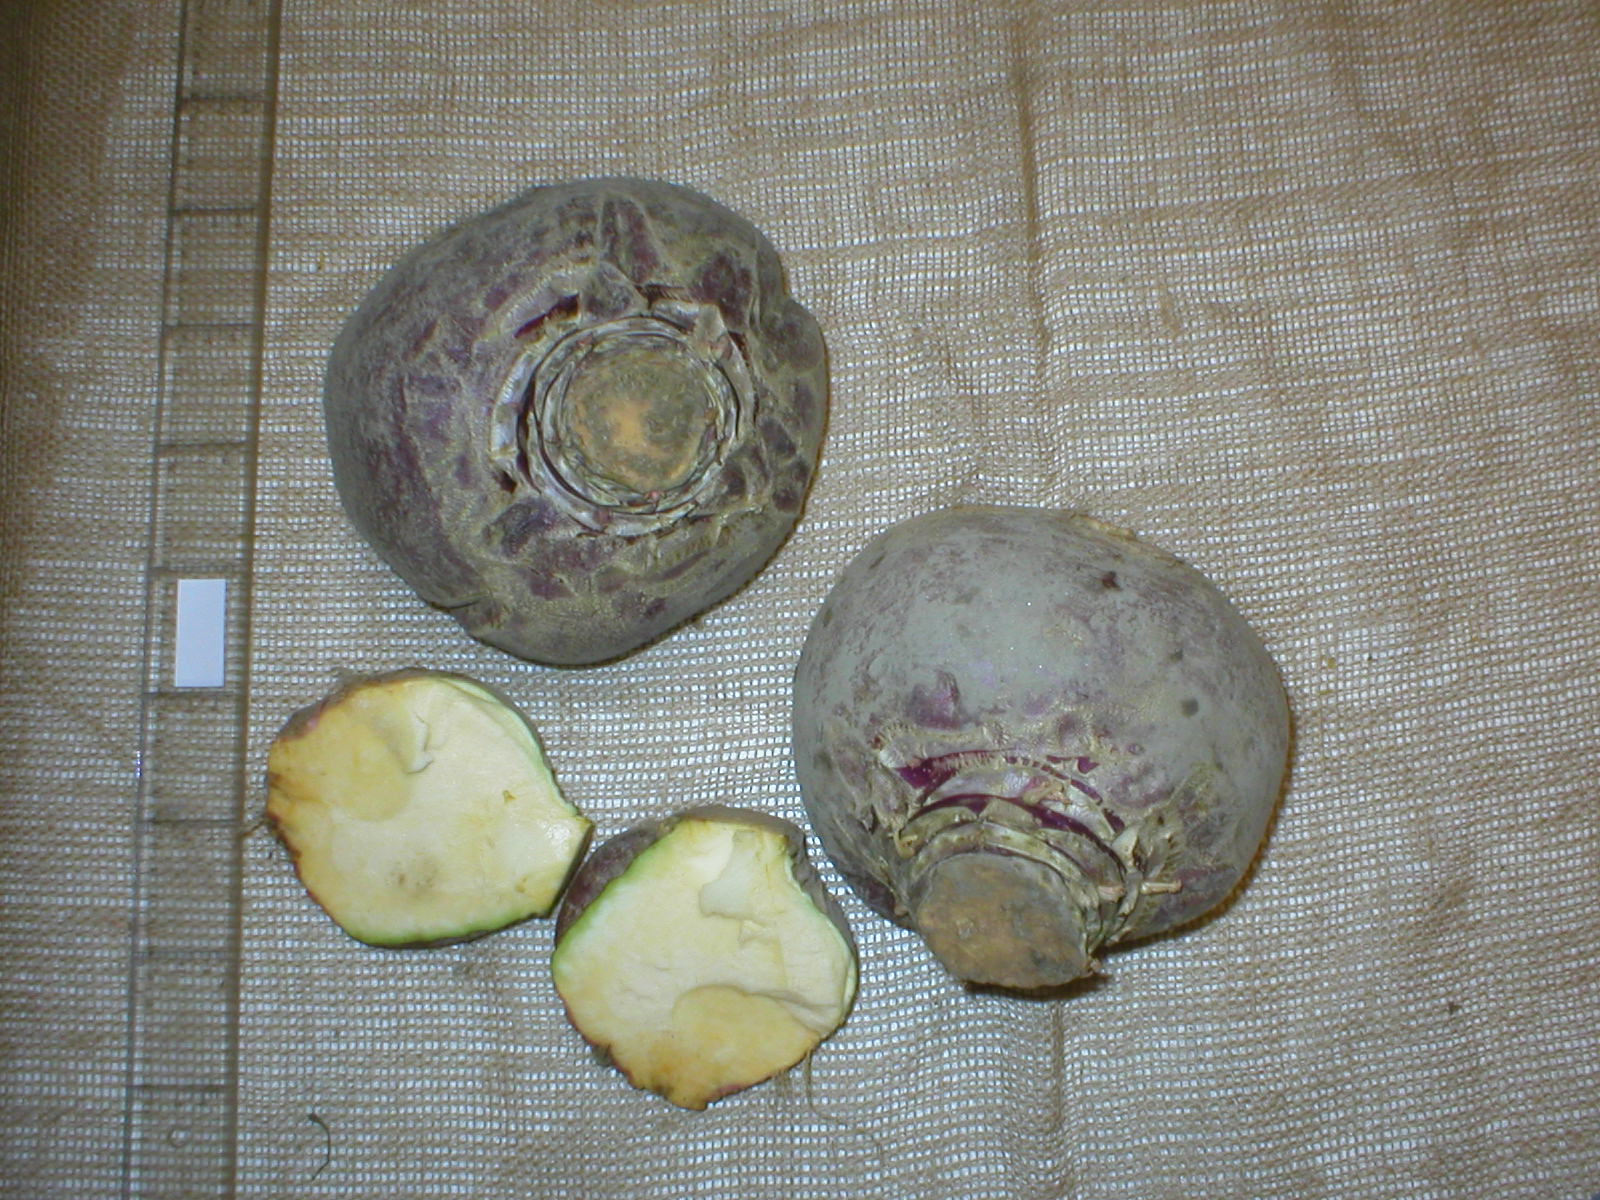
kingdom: Plantae
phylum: Tracheophyta
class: Magnoliopsida
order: Brassicales
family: Brassicaceae
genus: Brassica
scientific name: Brassica napus
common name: Rape
